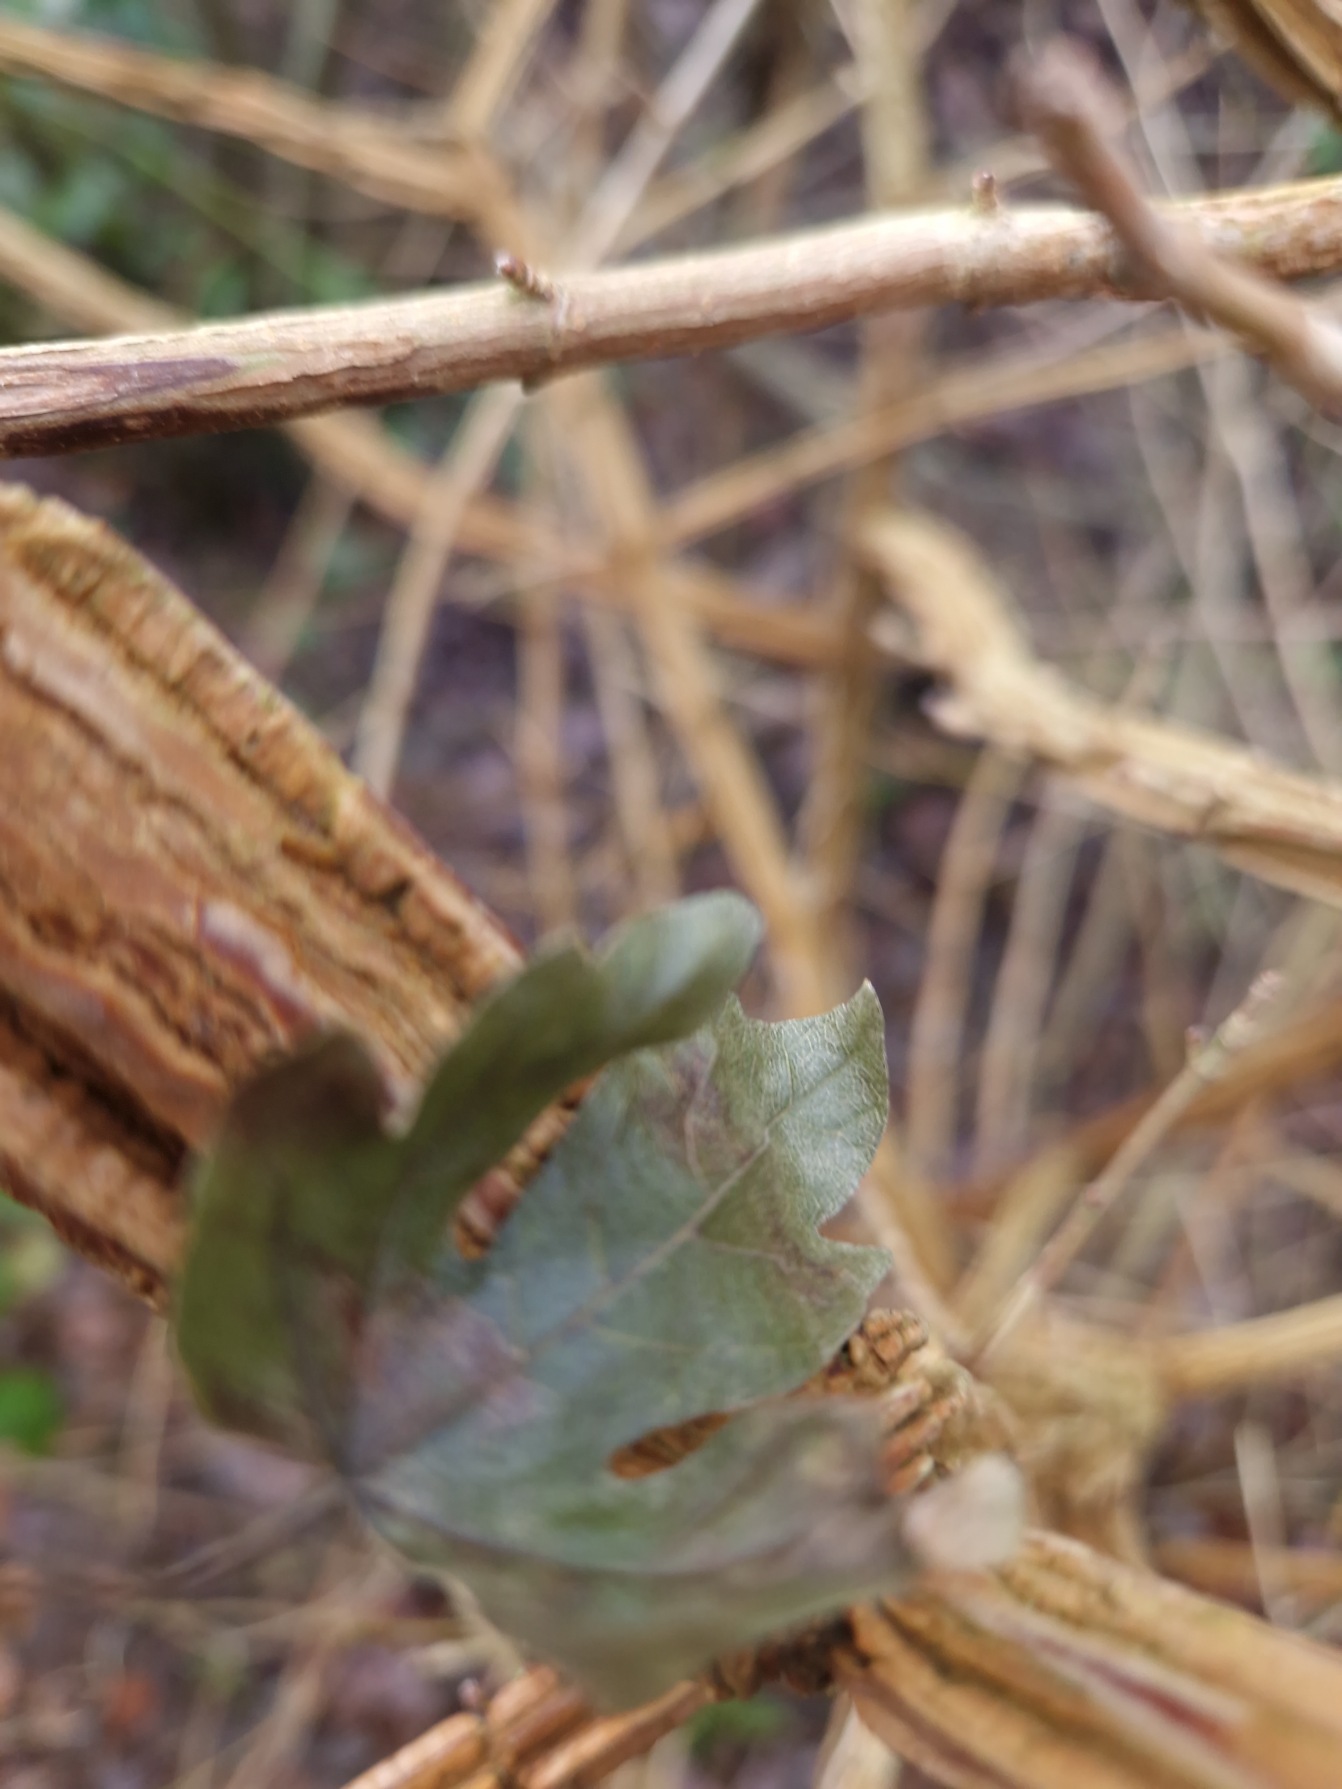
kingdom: Plantae
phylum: Tracheophyta
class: Magnoliopsida
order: Sapindales
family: Sapindaceae
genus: Acer
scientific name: Acer campestre
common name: Navr
